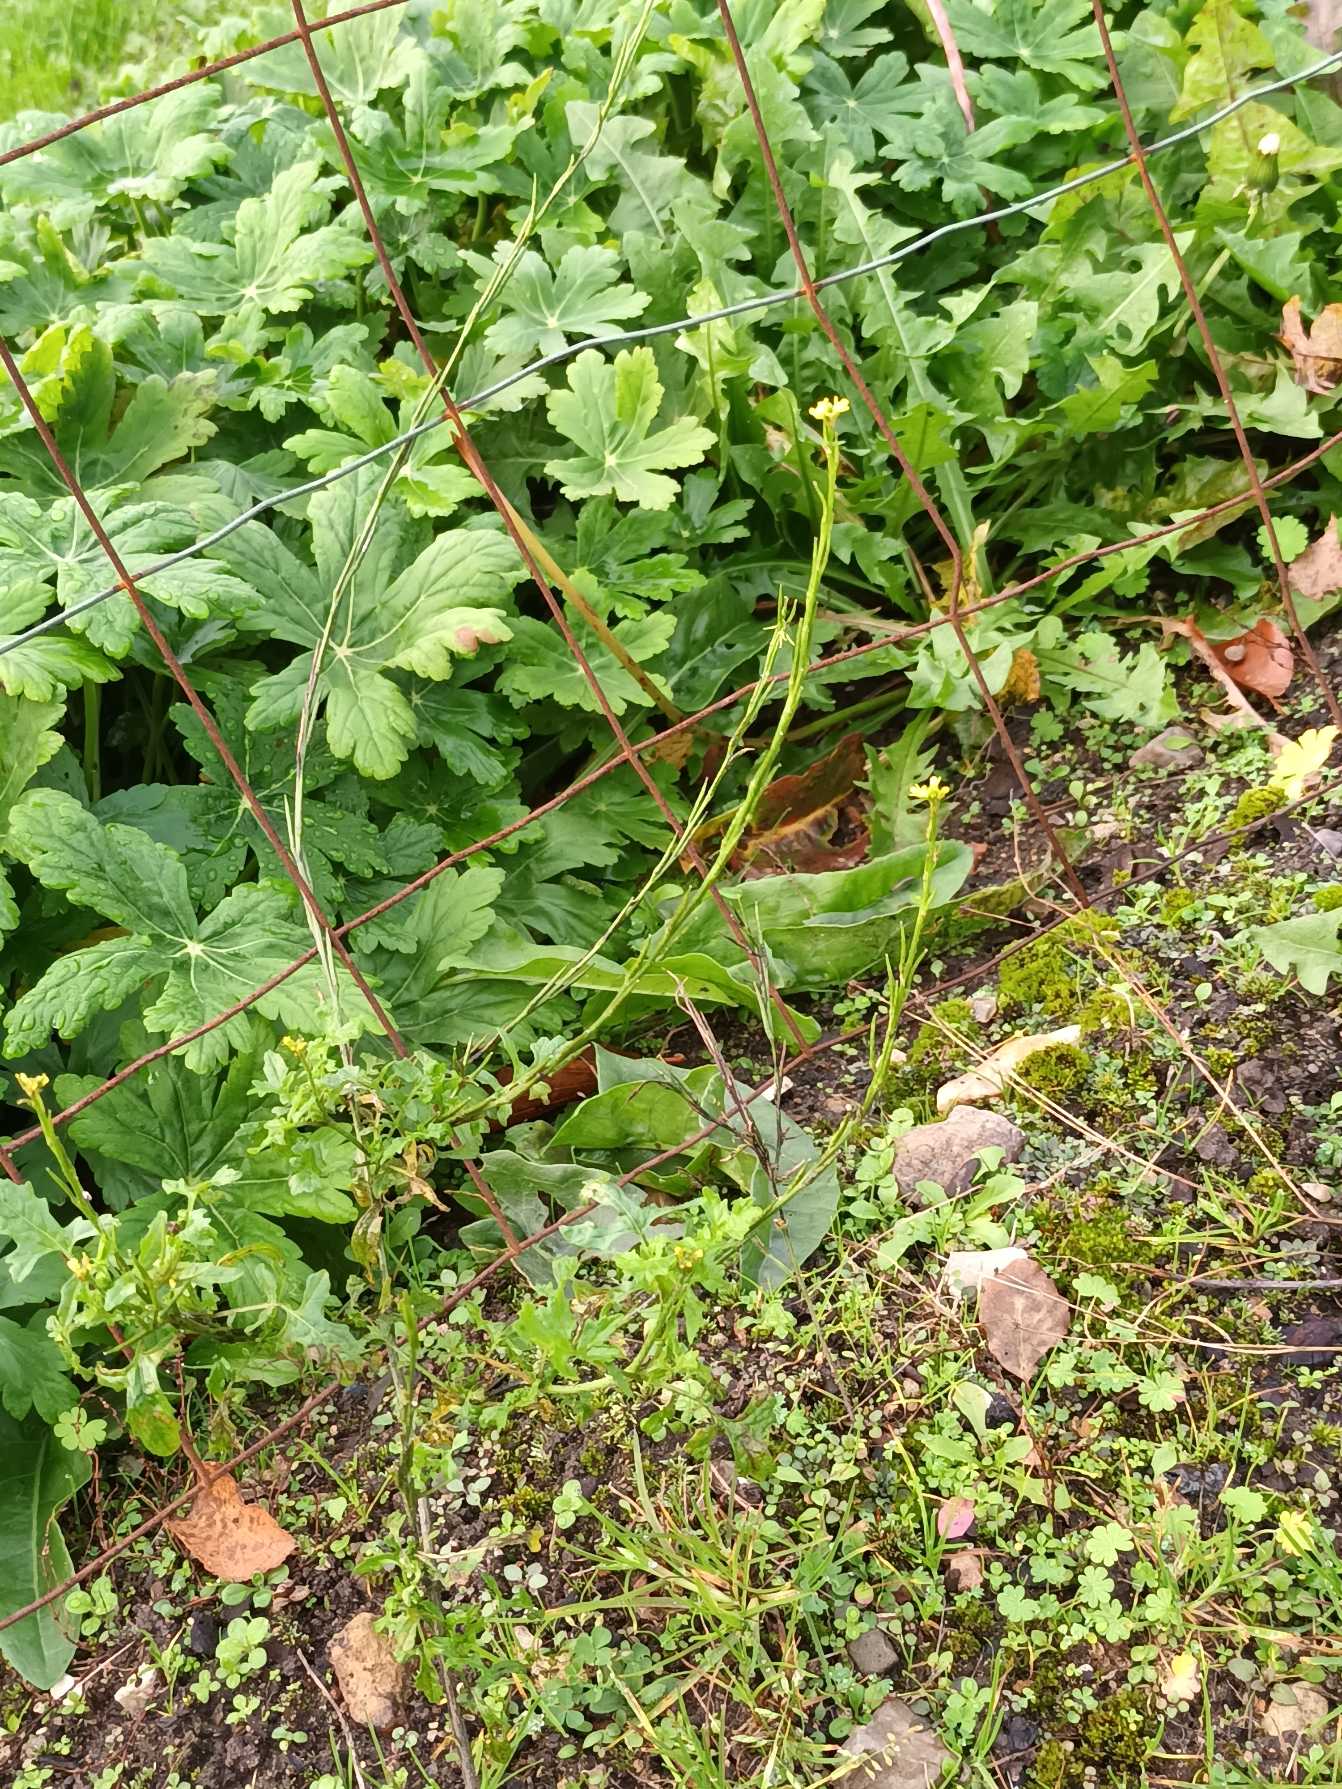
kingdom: Plantae
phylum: Tracheophyta
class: Magnoliopsida
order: Brassicales
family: Brassicaceae
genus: Sisymbrium
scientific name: Sisymbrium officinale
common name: Rank vejsennep
